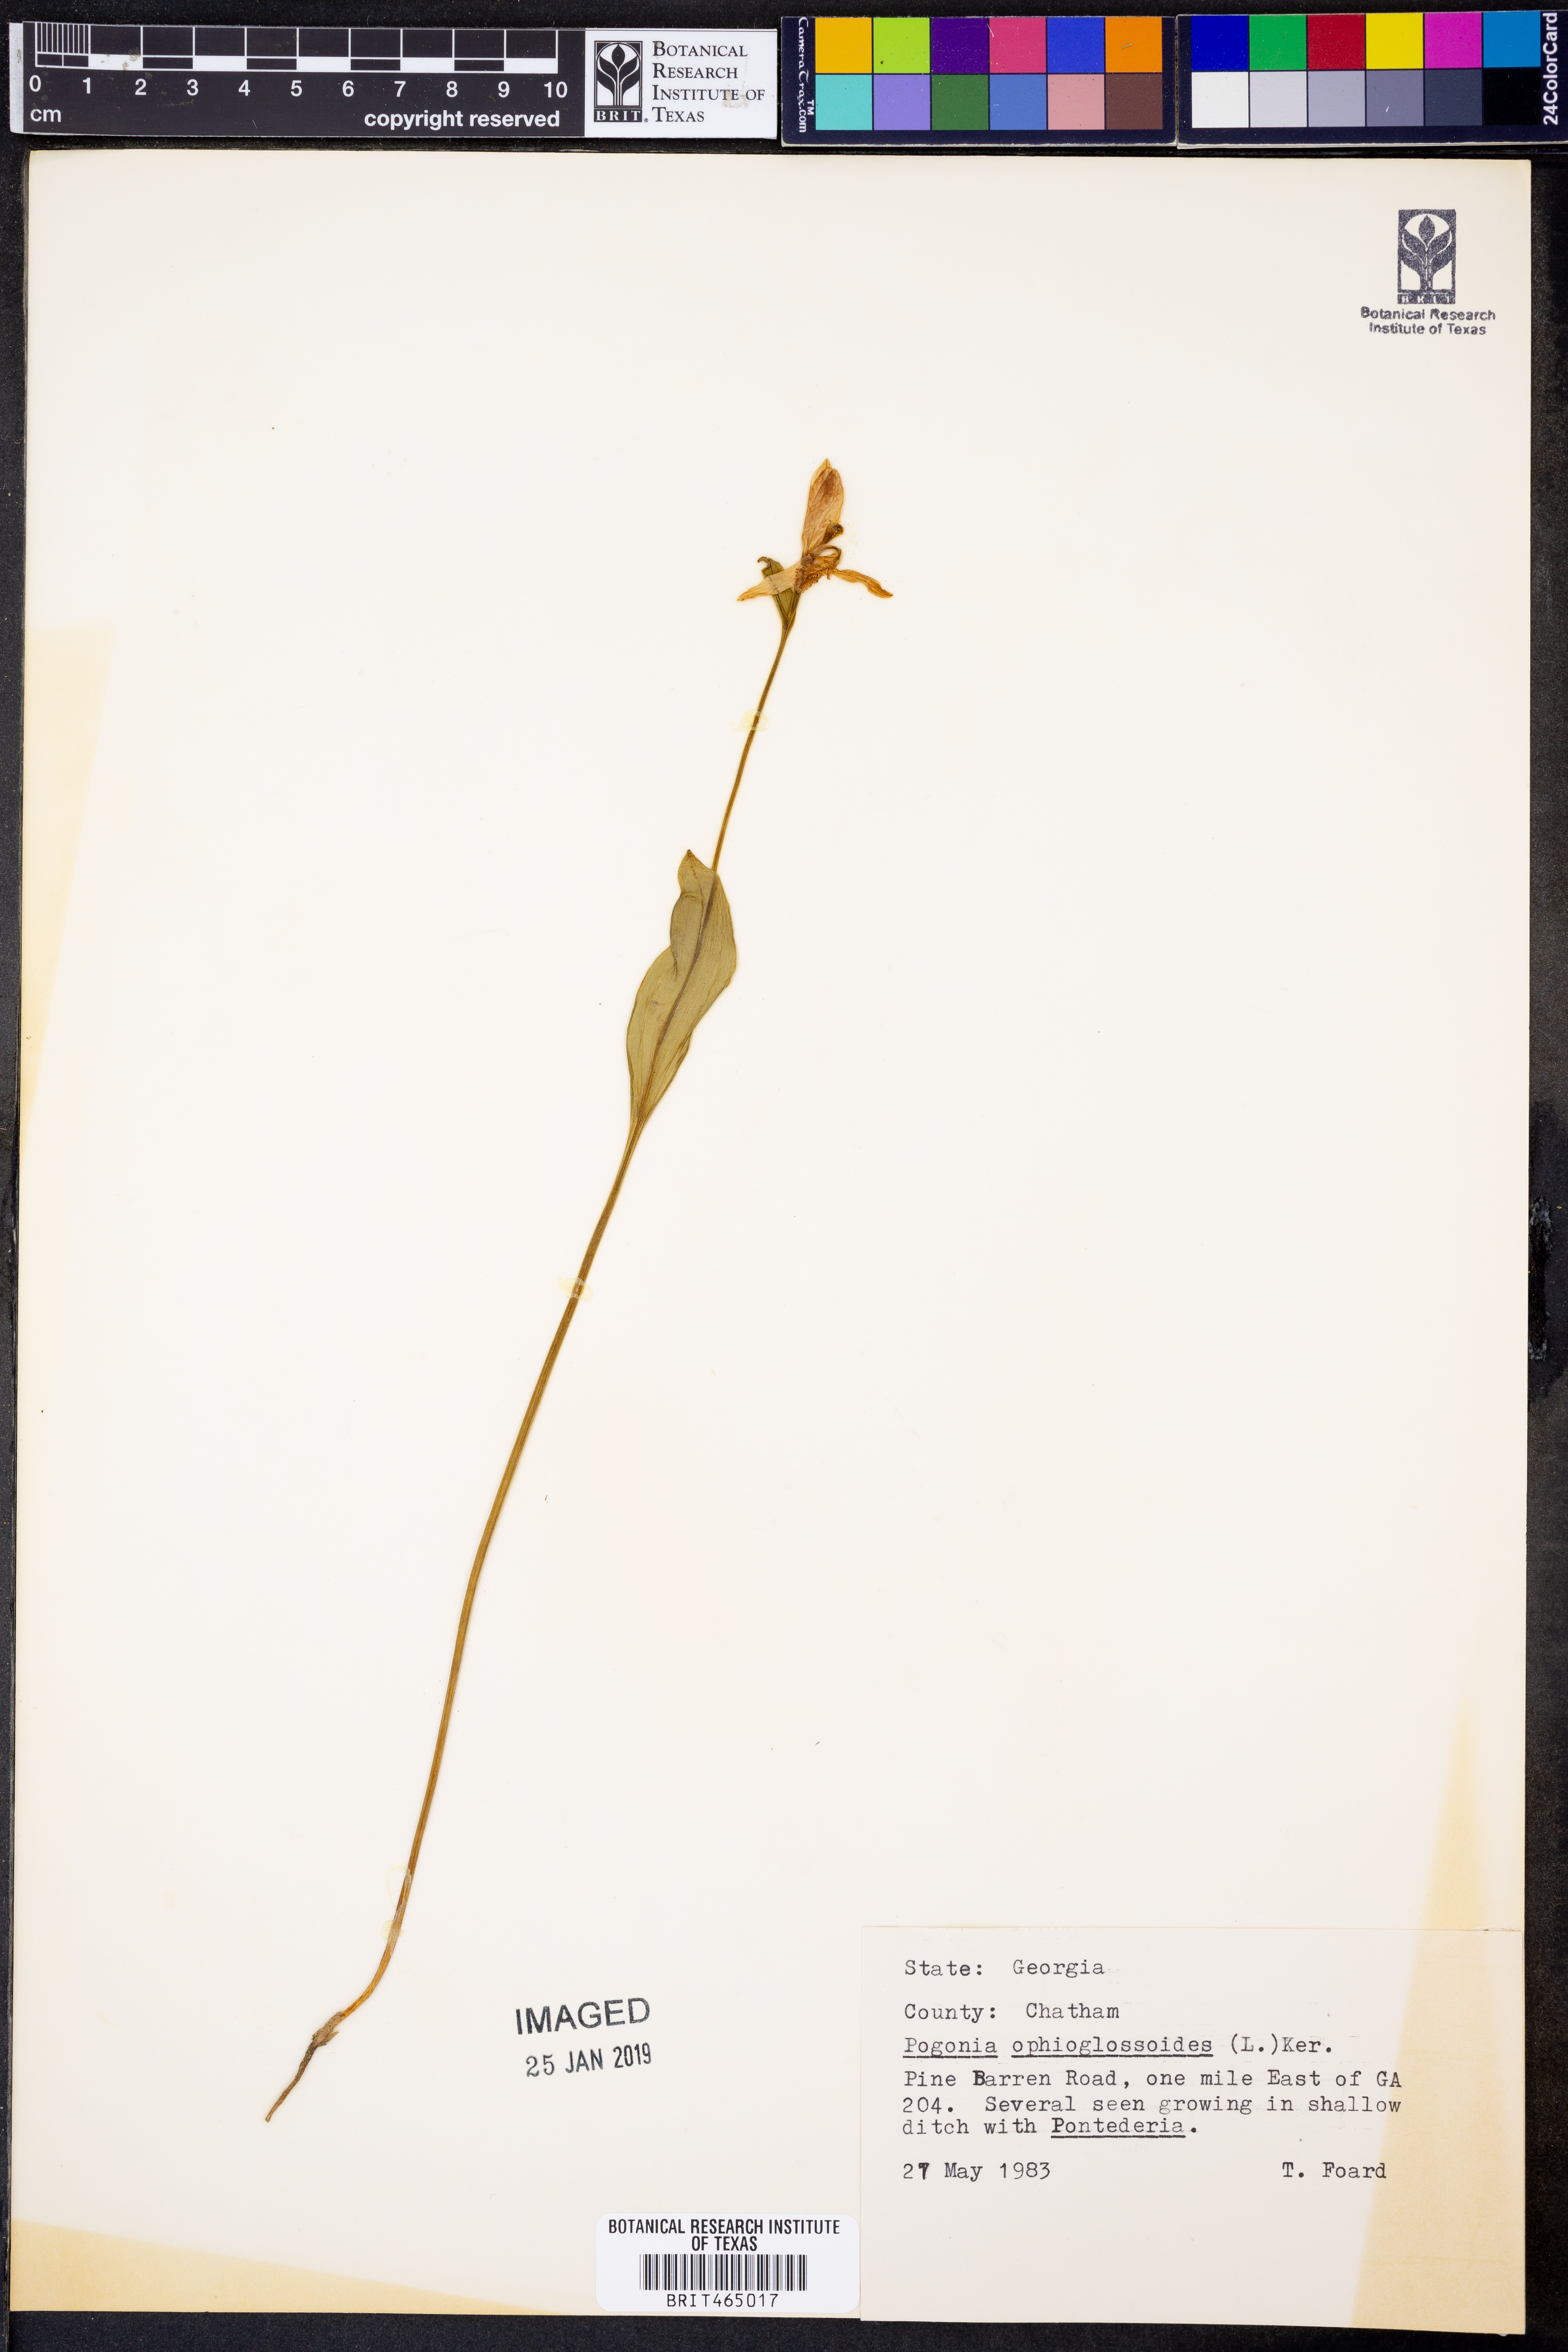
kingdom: Plantae
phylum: Tracheophyta
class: Liliopsida
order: Asparagales
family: Orchidaceae
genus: Pogonia
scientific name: Pogonia ophioglossoides
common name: Rose pogonia
